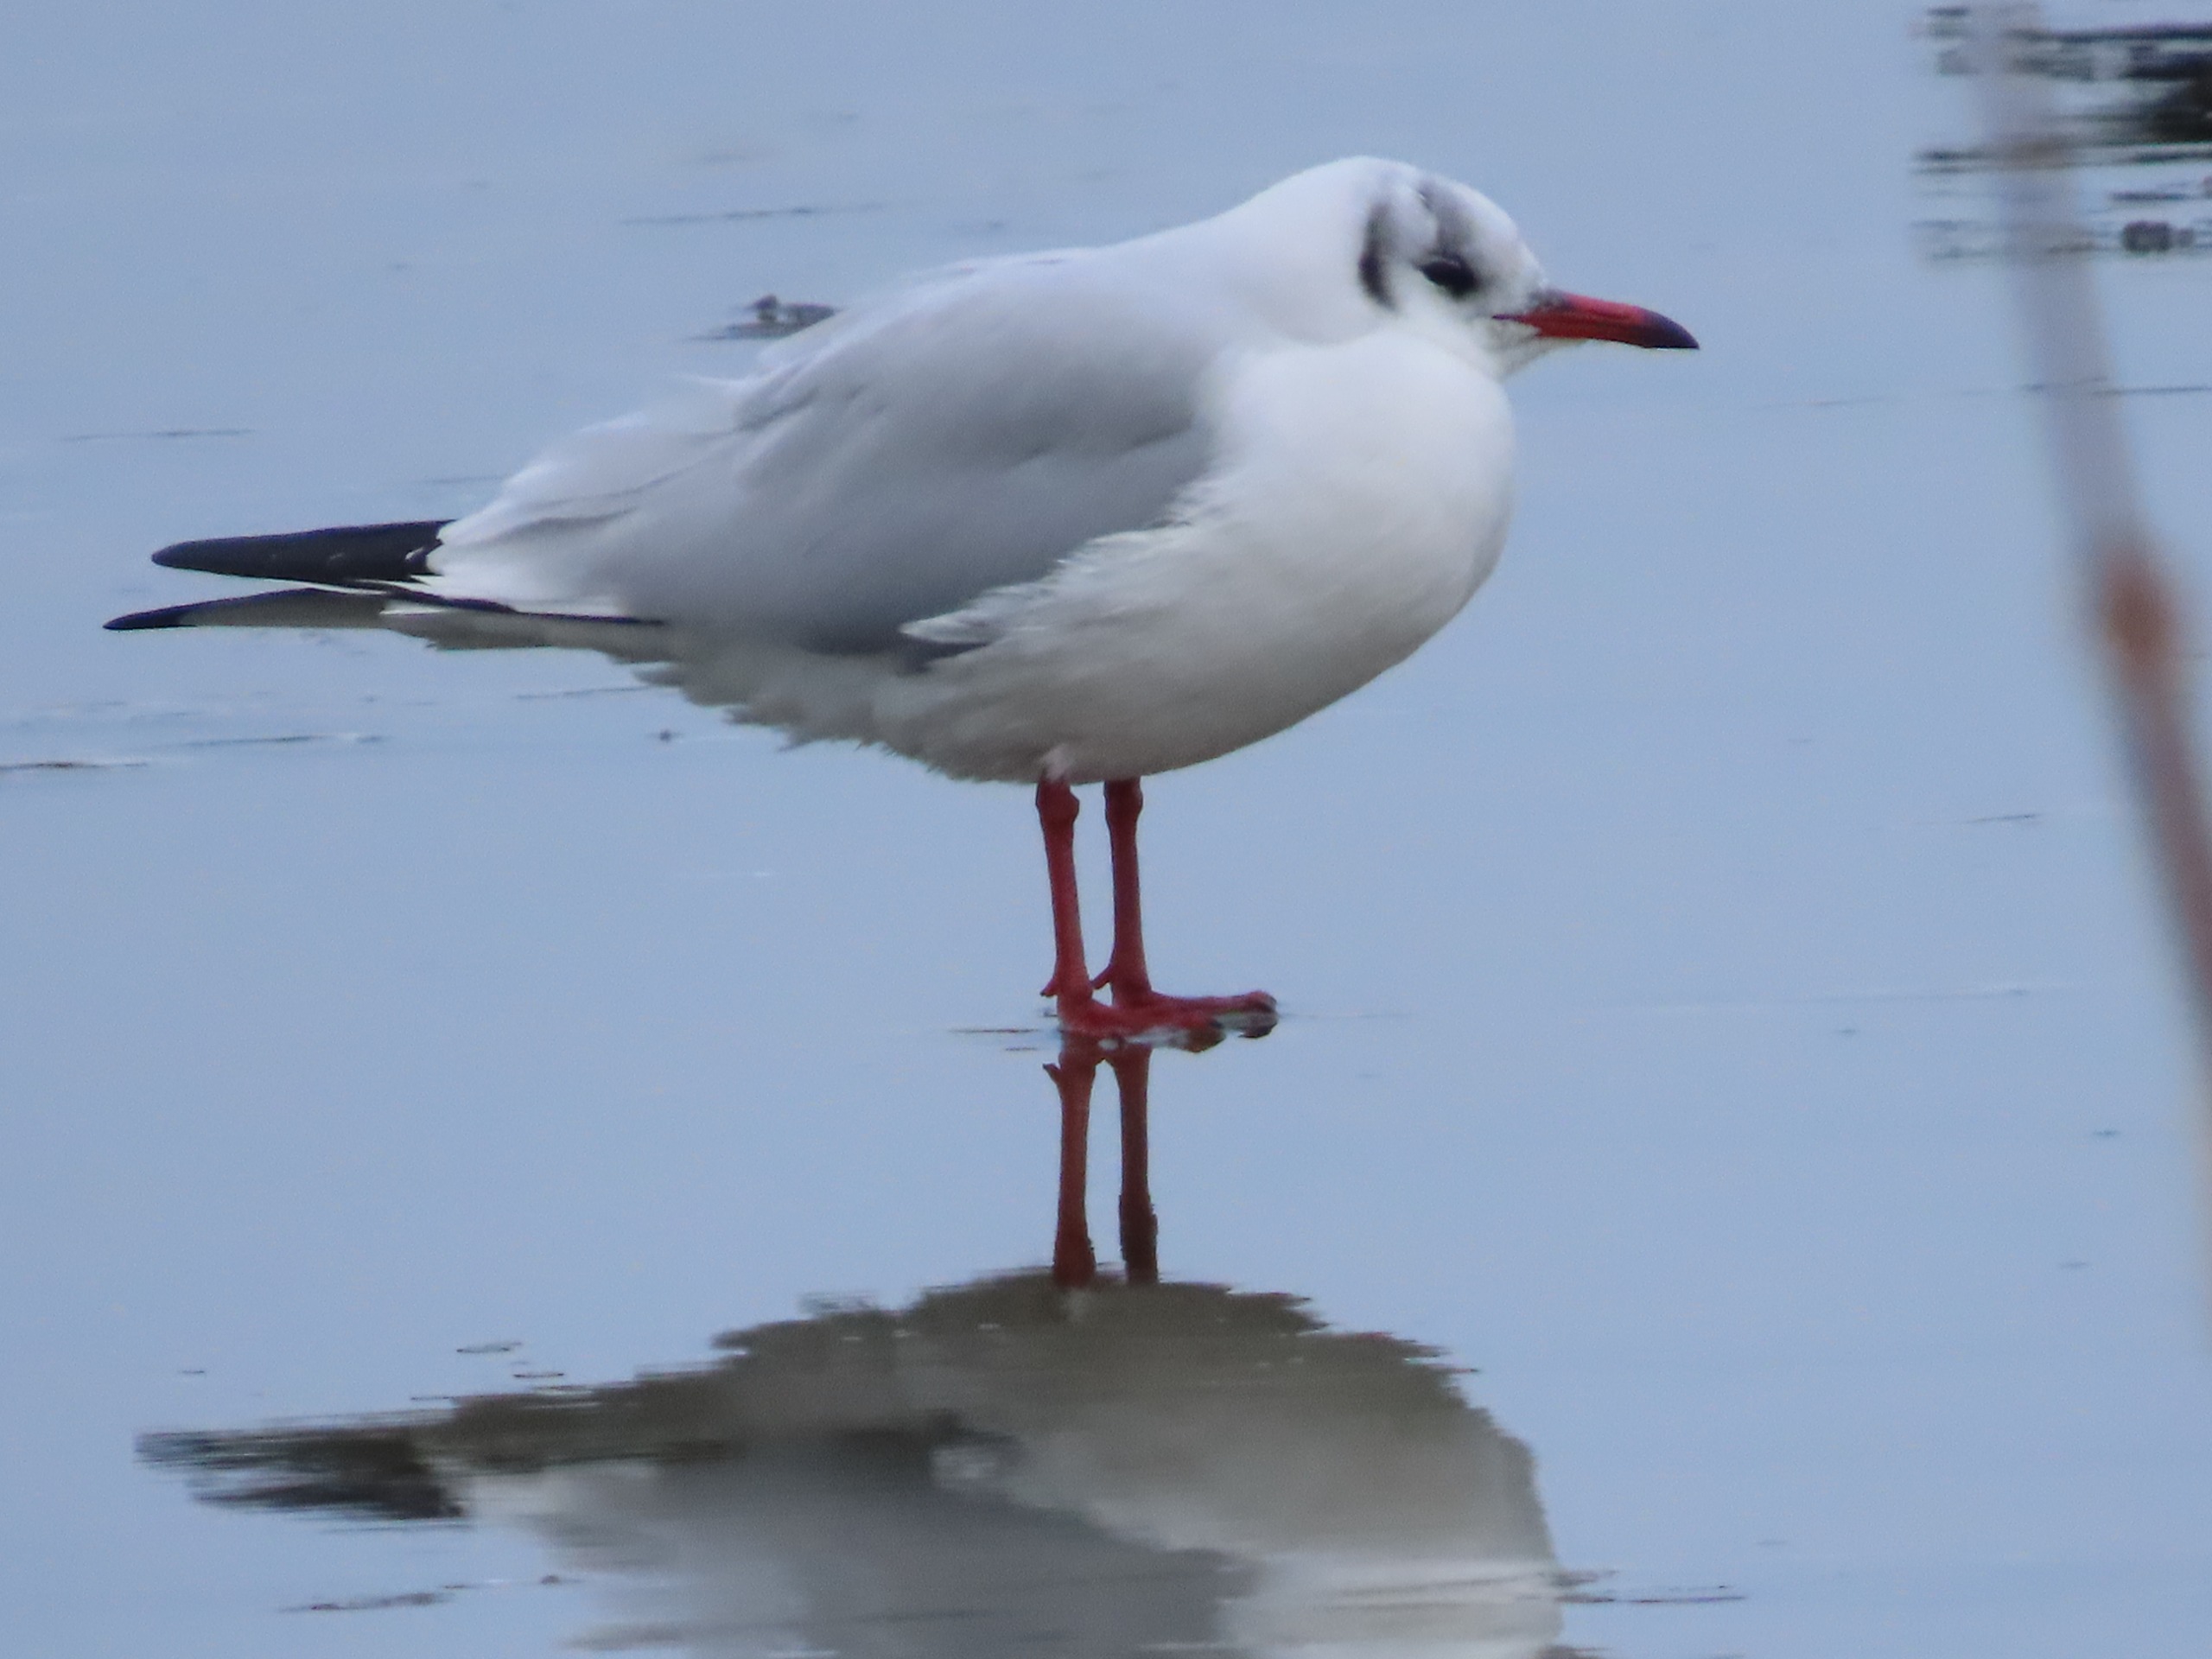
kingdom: Animalia
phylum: Chordata
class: Aves
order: Charadriiformes
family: Laridae
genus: Chroicocephalus
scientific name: Chroicocephalus ridibundus
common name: Hættemåge
